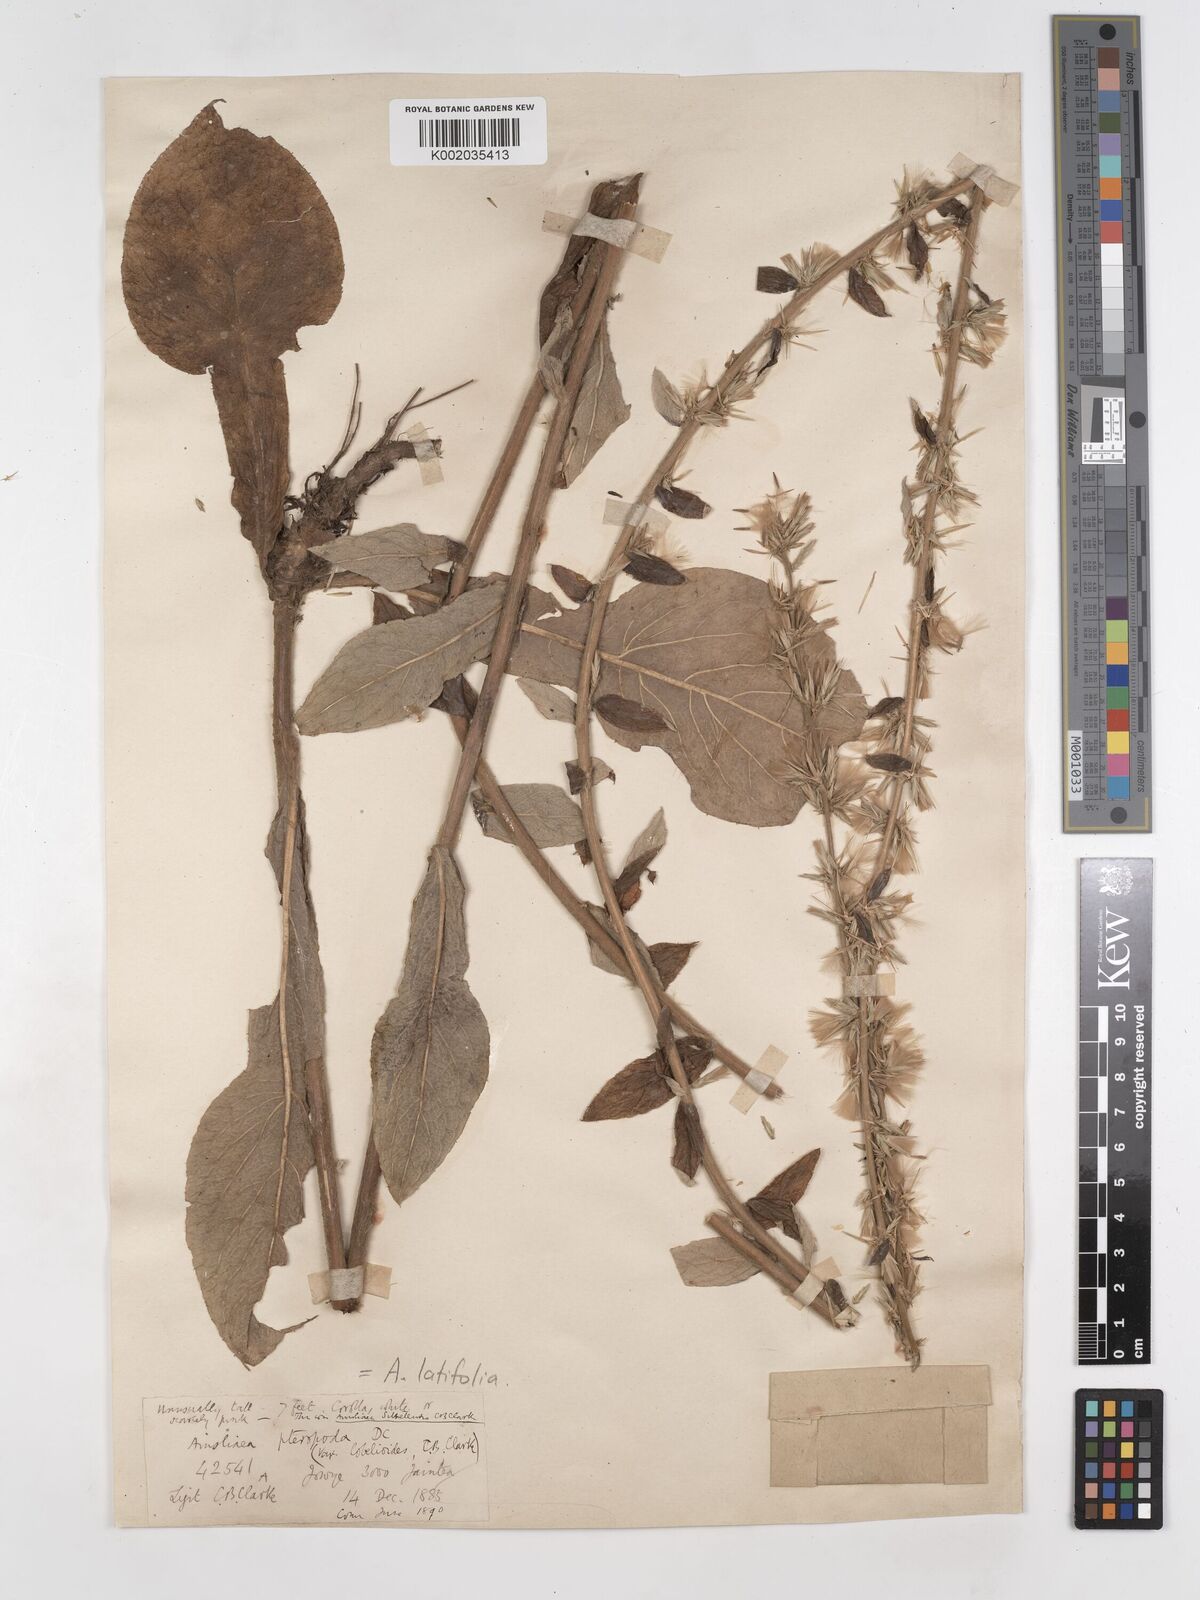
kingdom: Plantae
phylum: Tracheophyta
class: Magnoliopsida
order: Asterales
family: Asteraceae
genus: Ainsliaea
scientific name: Ainsliaea latifolia
